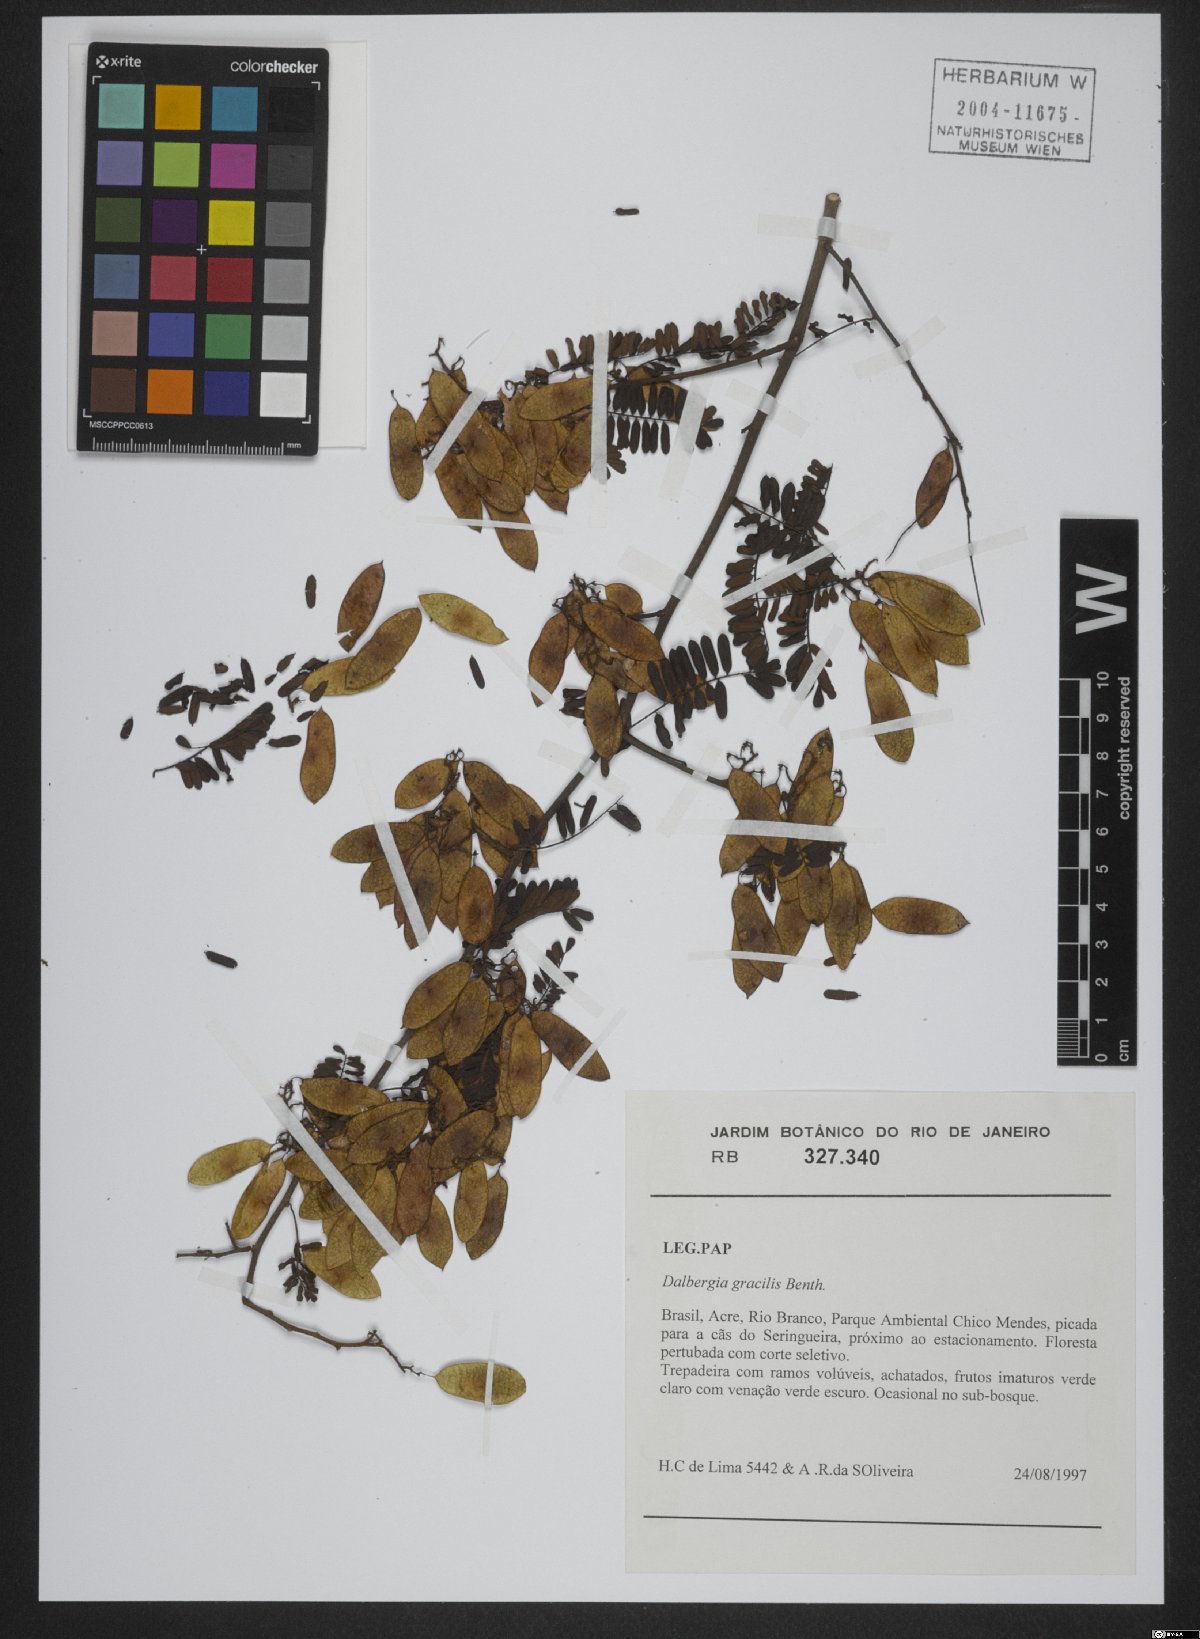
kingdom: Plantae
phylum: Tracheophyta
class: Magnoliopsida
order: Fabales
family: Fabaceae
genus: Dalbergia
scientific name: Dalbergia gracilis
